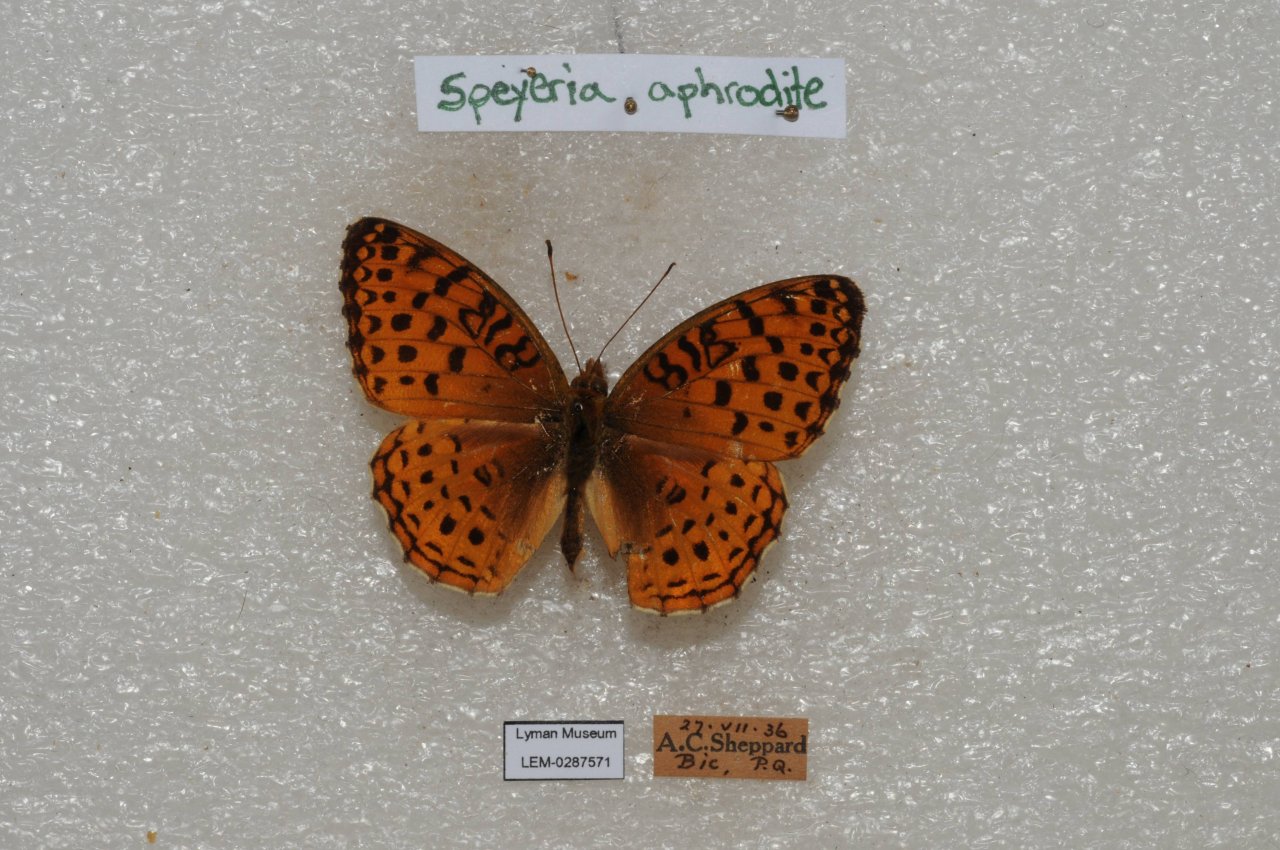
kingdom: Animalia
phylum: Arthropoda
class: Insecta
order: Lepidoptera
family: Nymphalidae
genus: Speyeria
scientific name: Speyeria aphrodite
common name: Aphrodite Fritillary
